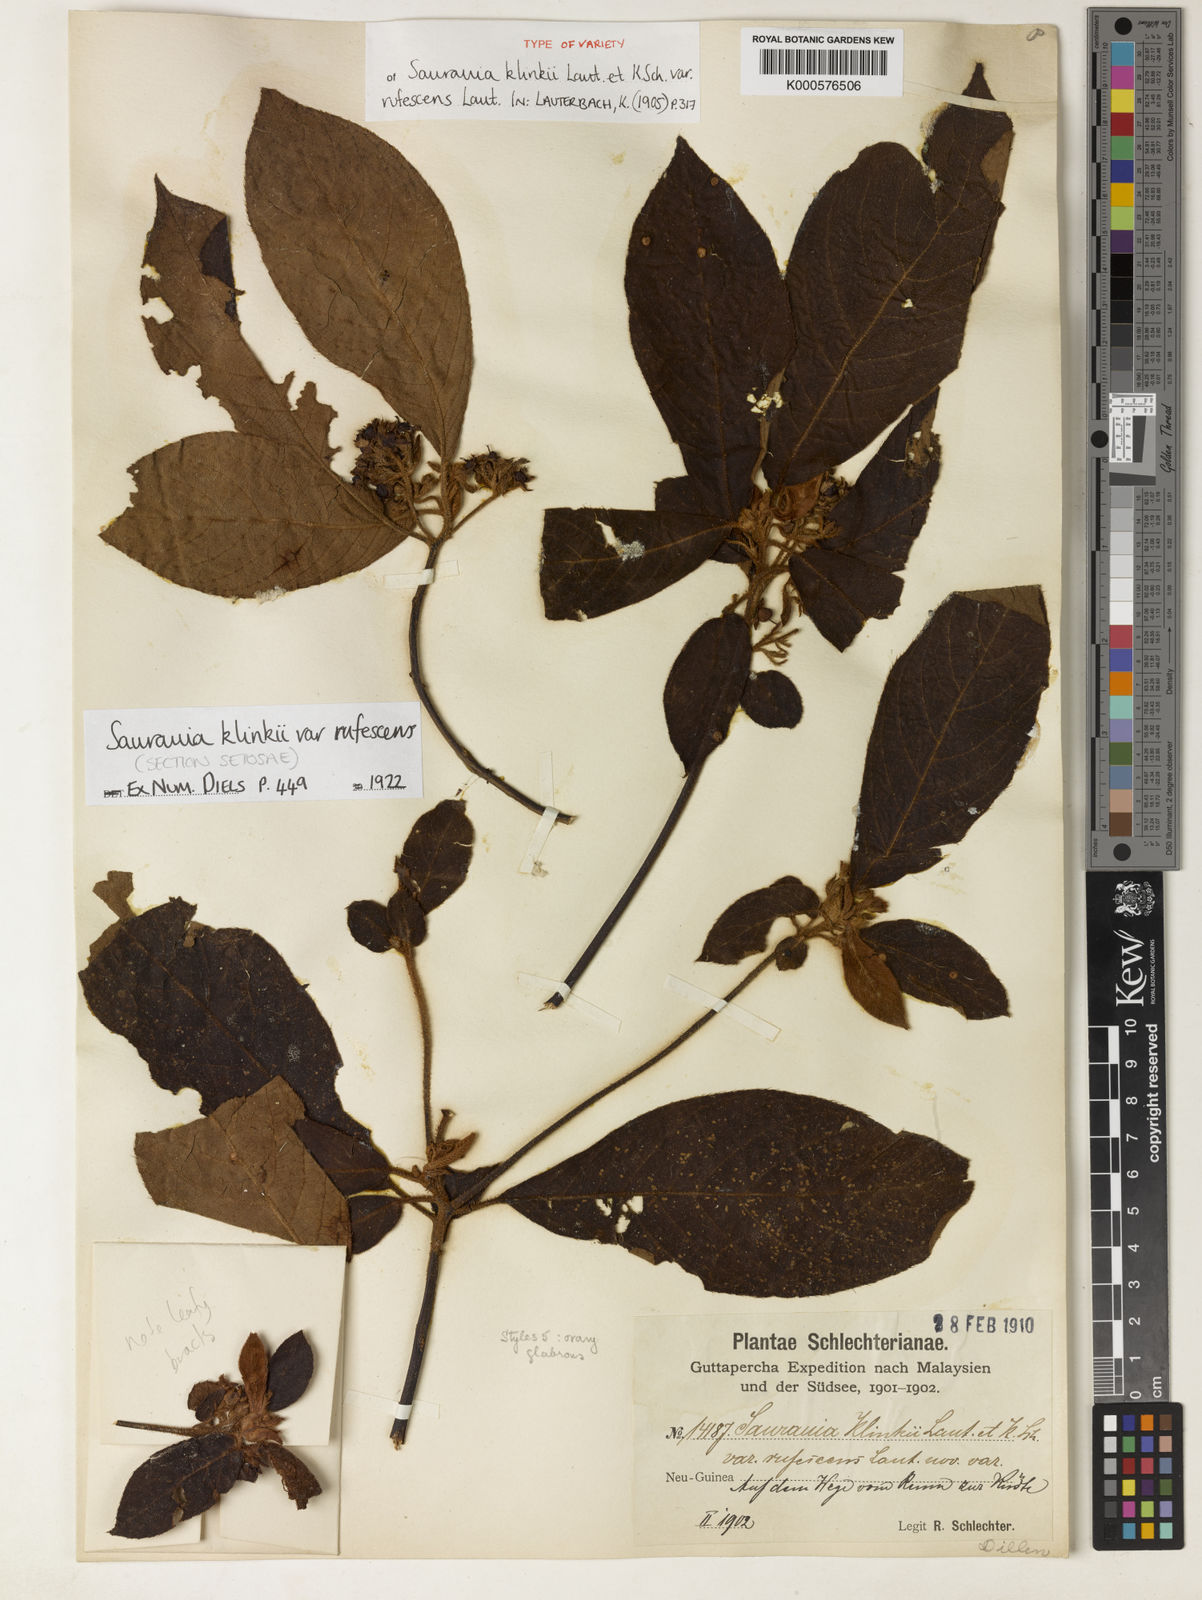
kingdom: Plantae
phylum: Tracheophyta
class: Magnoliopsida
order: Ericales
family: Actinidiaceae
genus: Saurauia
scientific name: Saurauia klinkii
